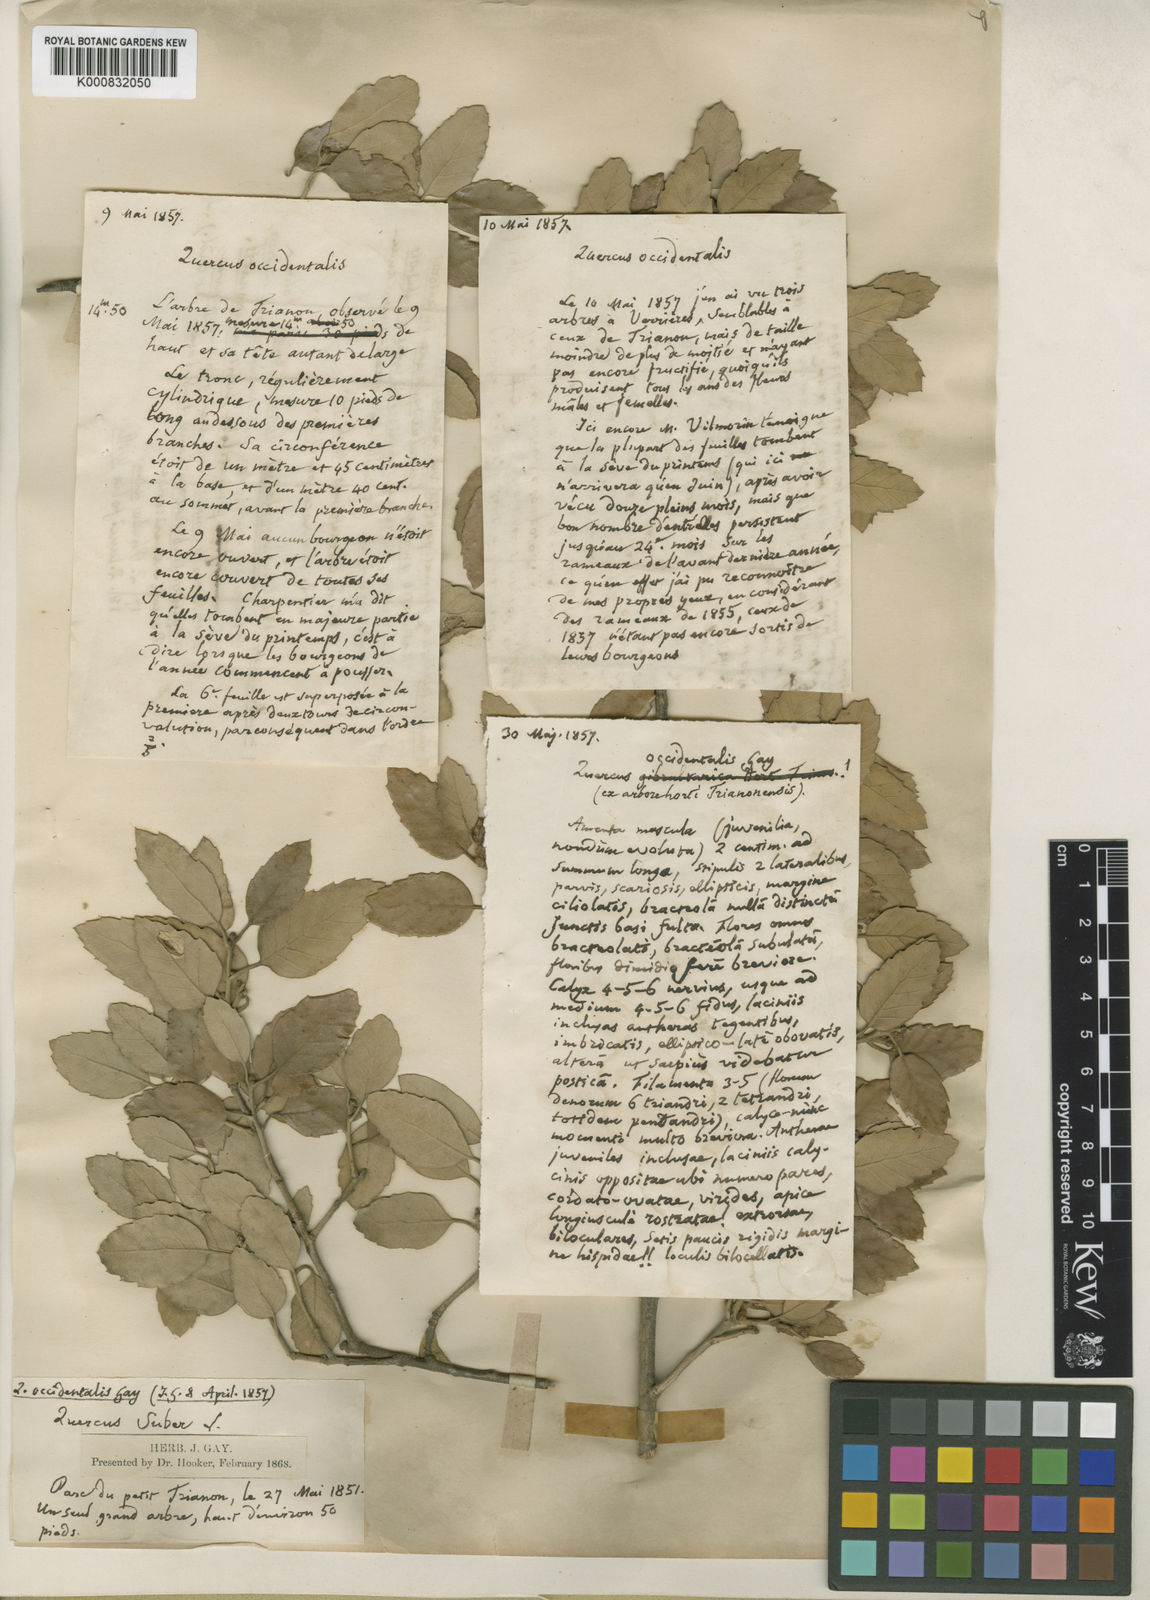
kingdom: Plantae
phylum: Tracheophyta
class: Magnoliopsida
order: Fagales
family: Fagaceae
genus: Quercus
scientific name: Quercus suber
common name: Cork oak
